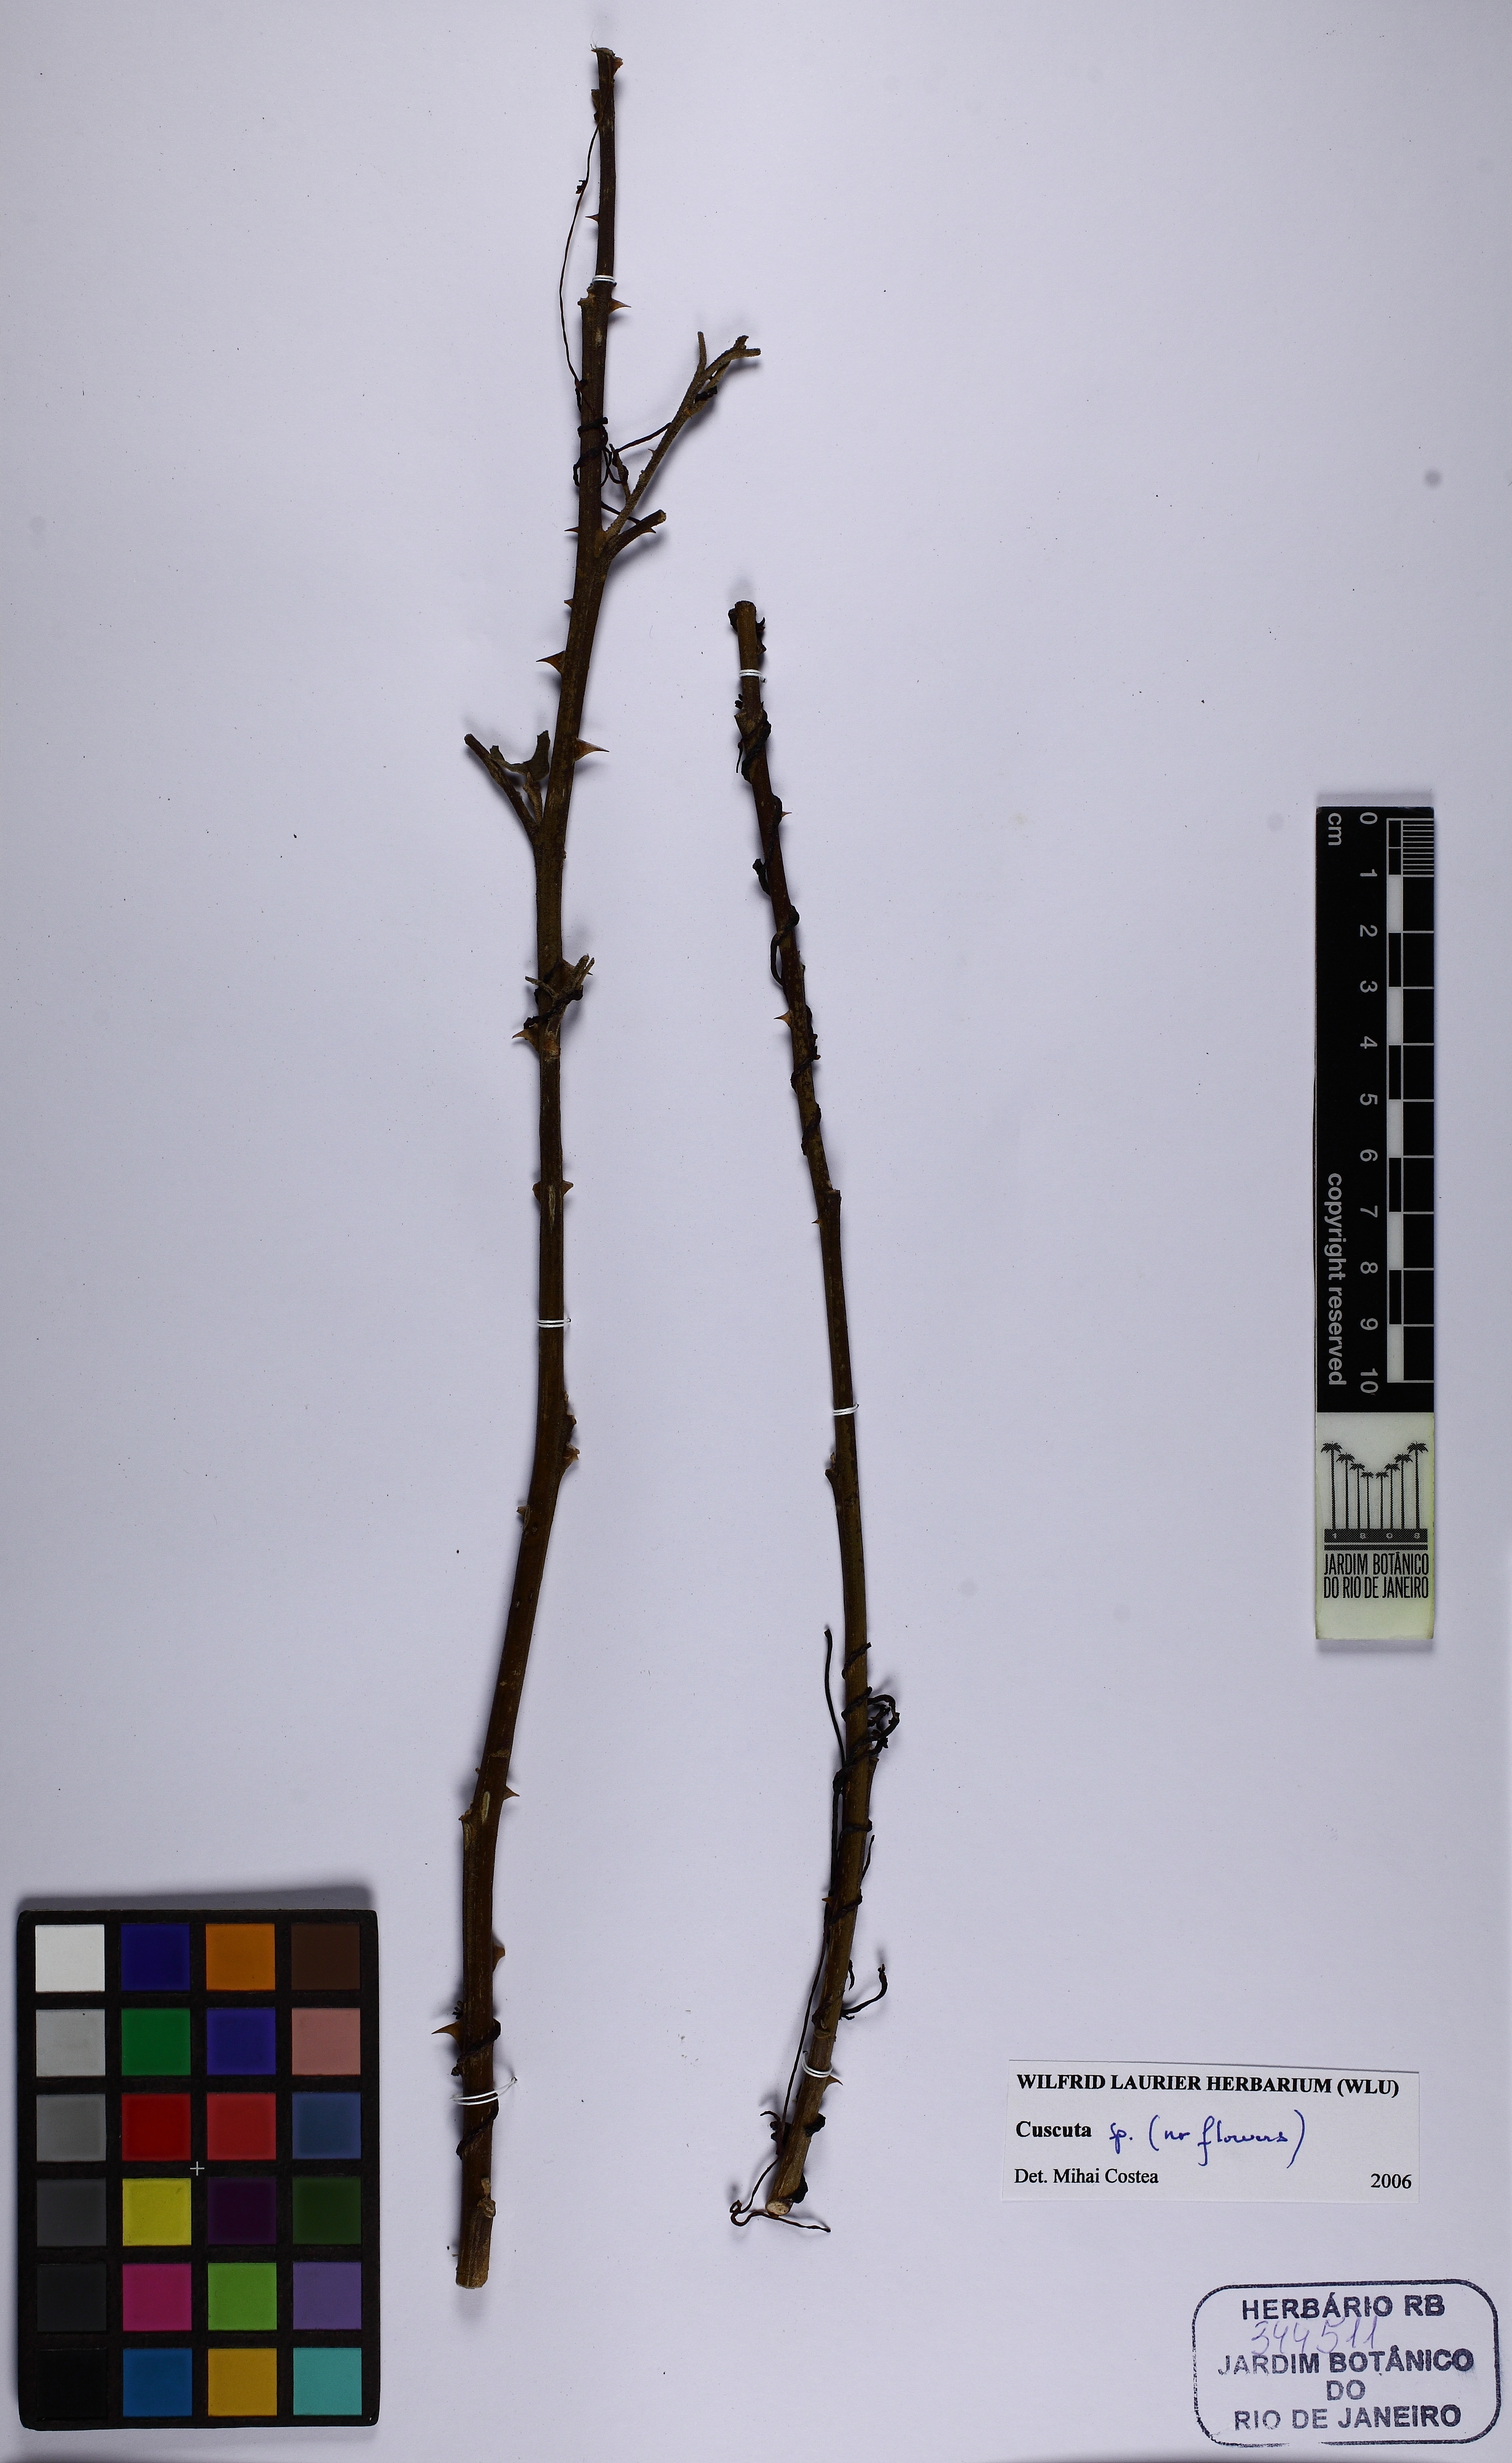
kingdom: Plantae
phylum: Tracheophyta
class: Magnoliopsida
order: Solanales
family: Convolvulaceae
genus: Cuscuta
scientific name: Cuscuta
